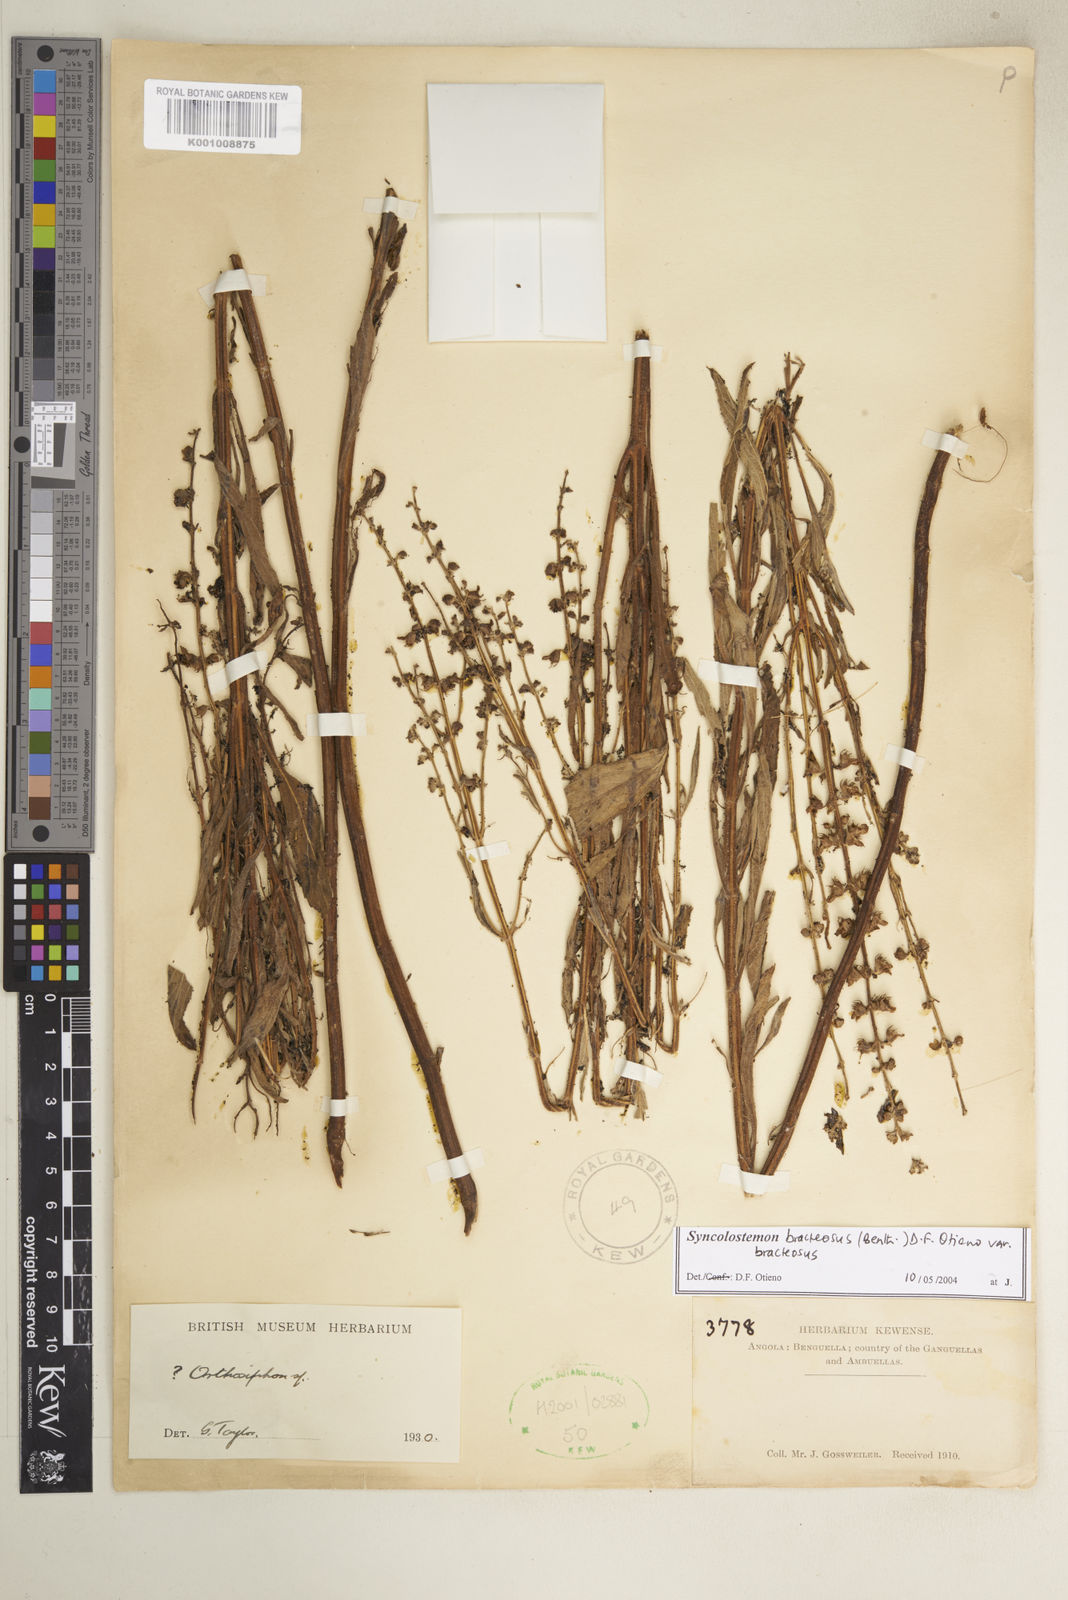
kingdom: Plantae
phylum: Tracheophyta
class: Magnoliopsida
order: Lamiales
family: Lamiaceae
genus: Syncolostemon
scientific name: Syncolostemon bracteosus
